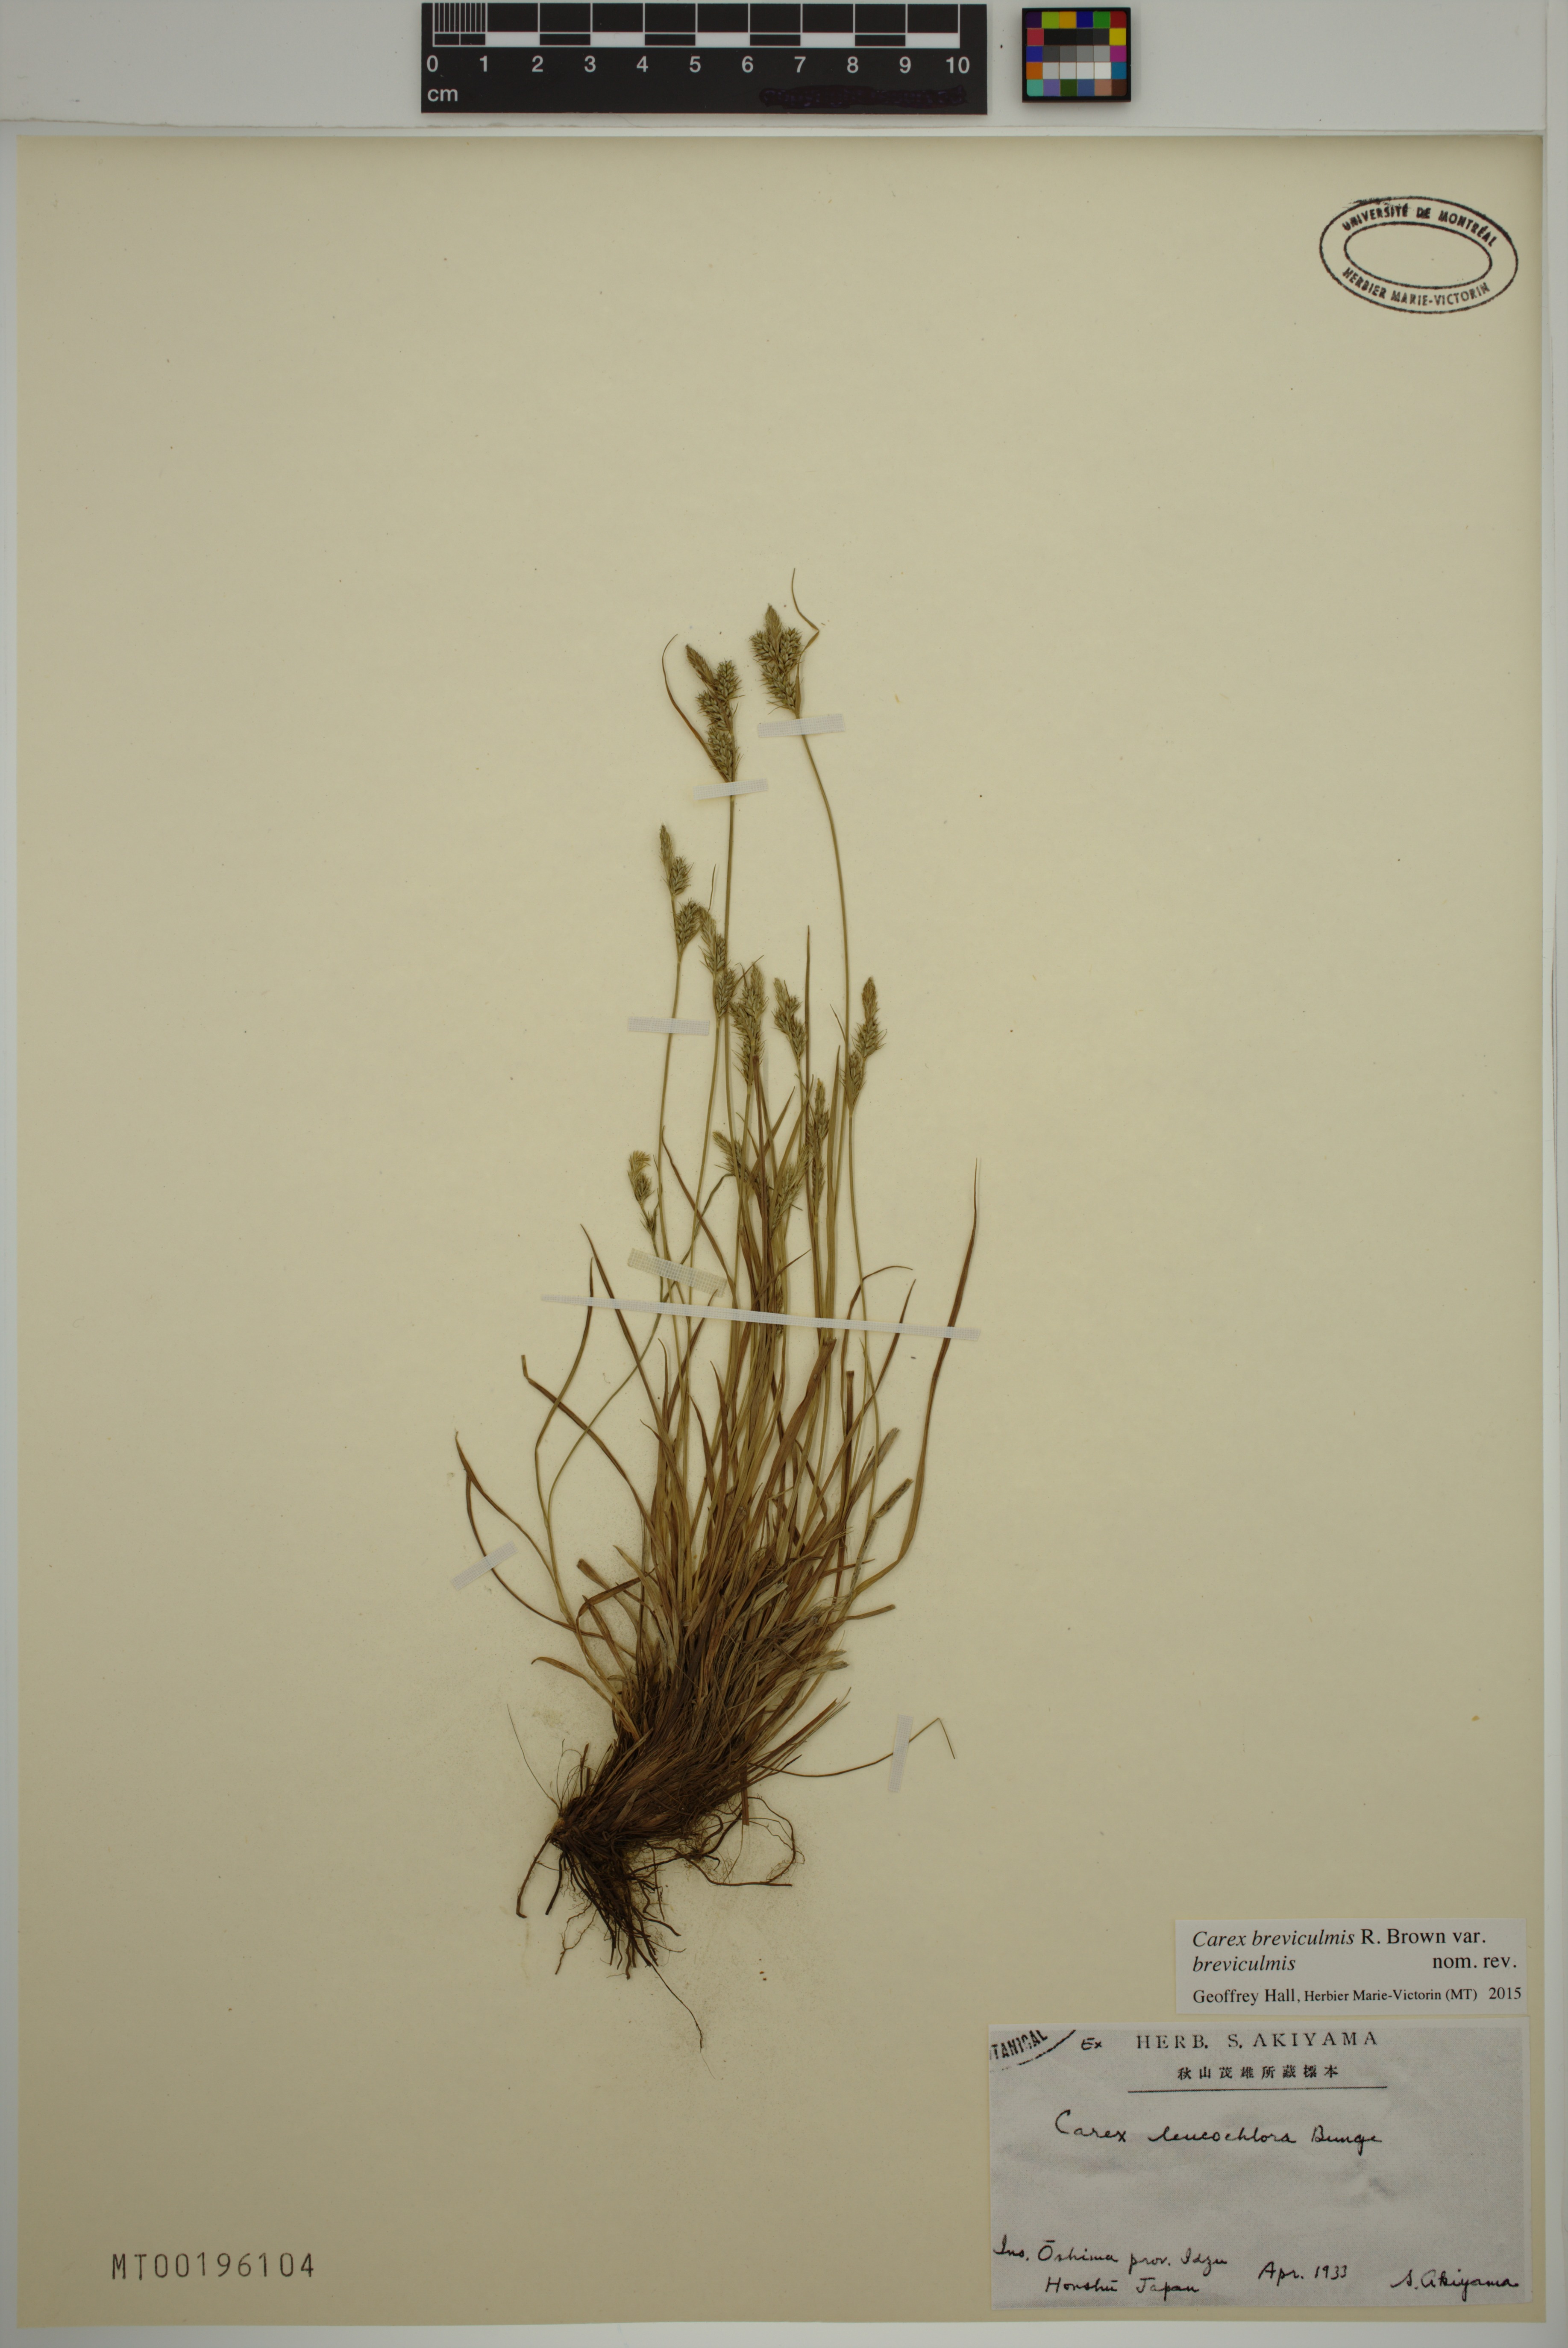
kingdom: Plantae
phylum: Tracheophyta
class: Liliopsida
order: Poales
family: Cyperaceae
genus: Carex
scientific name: Carex breviculmis
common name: Asian shortstem sedge
